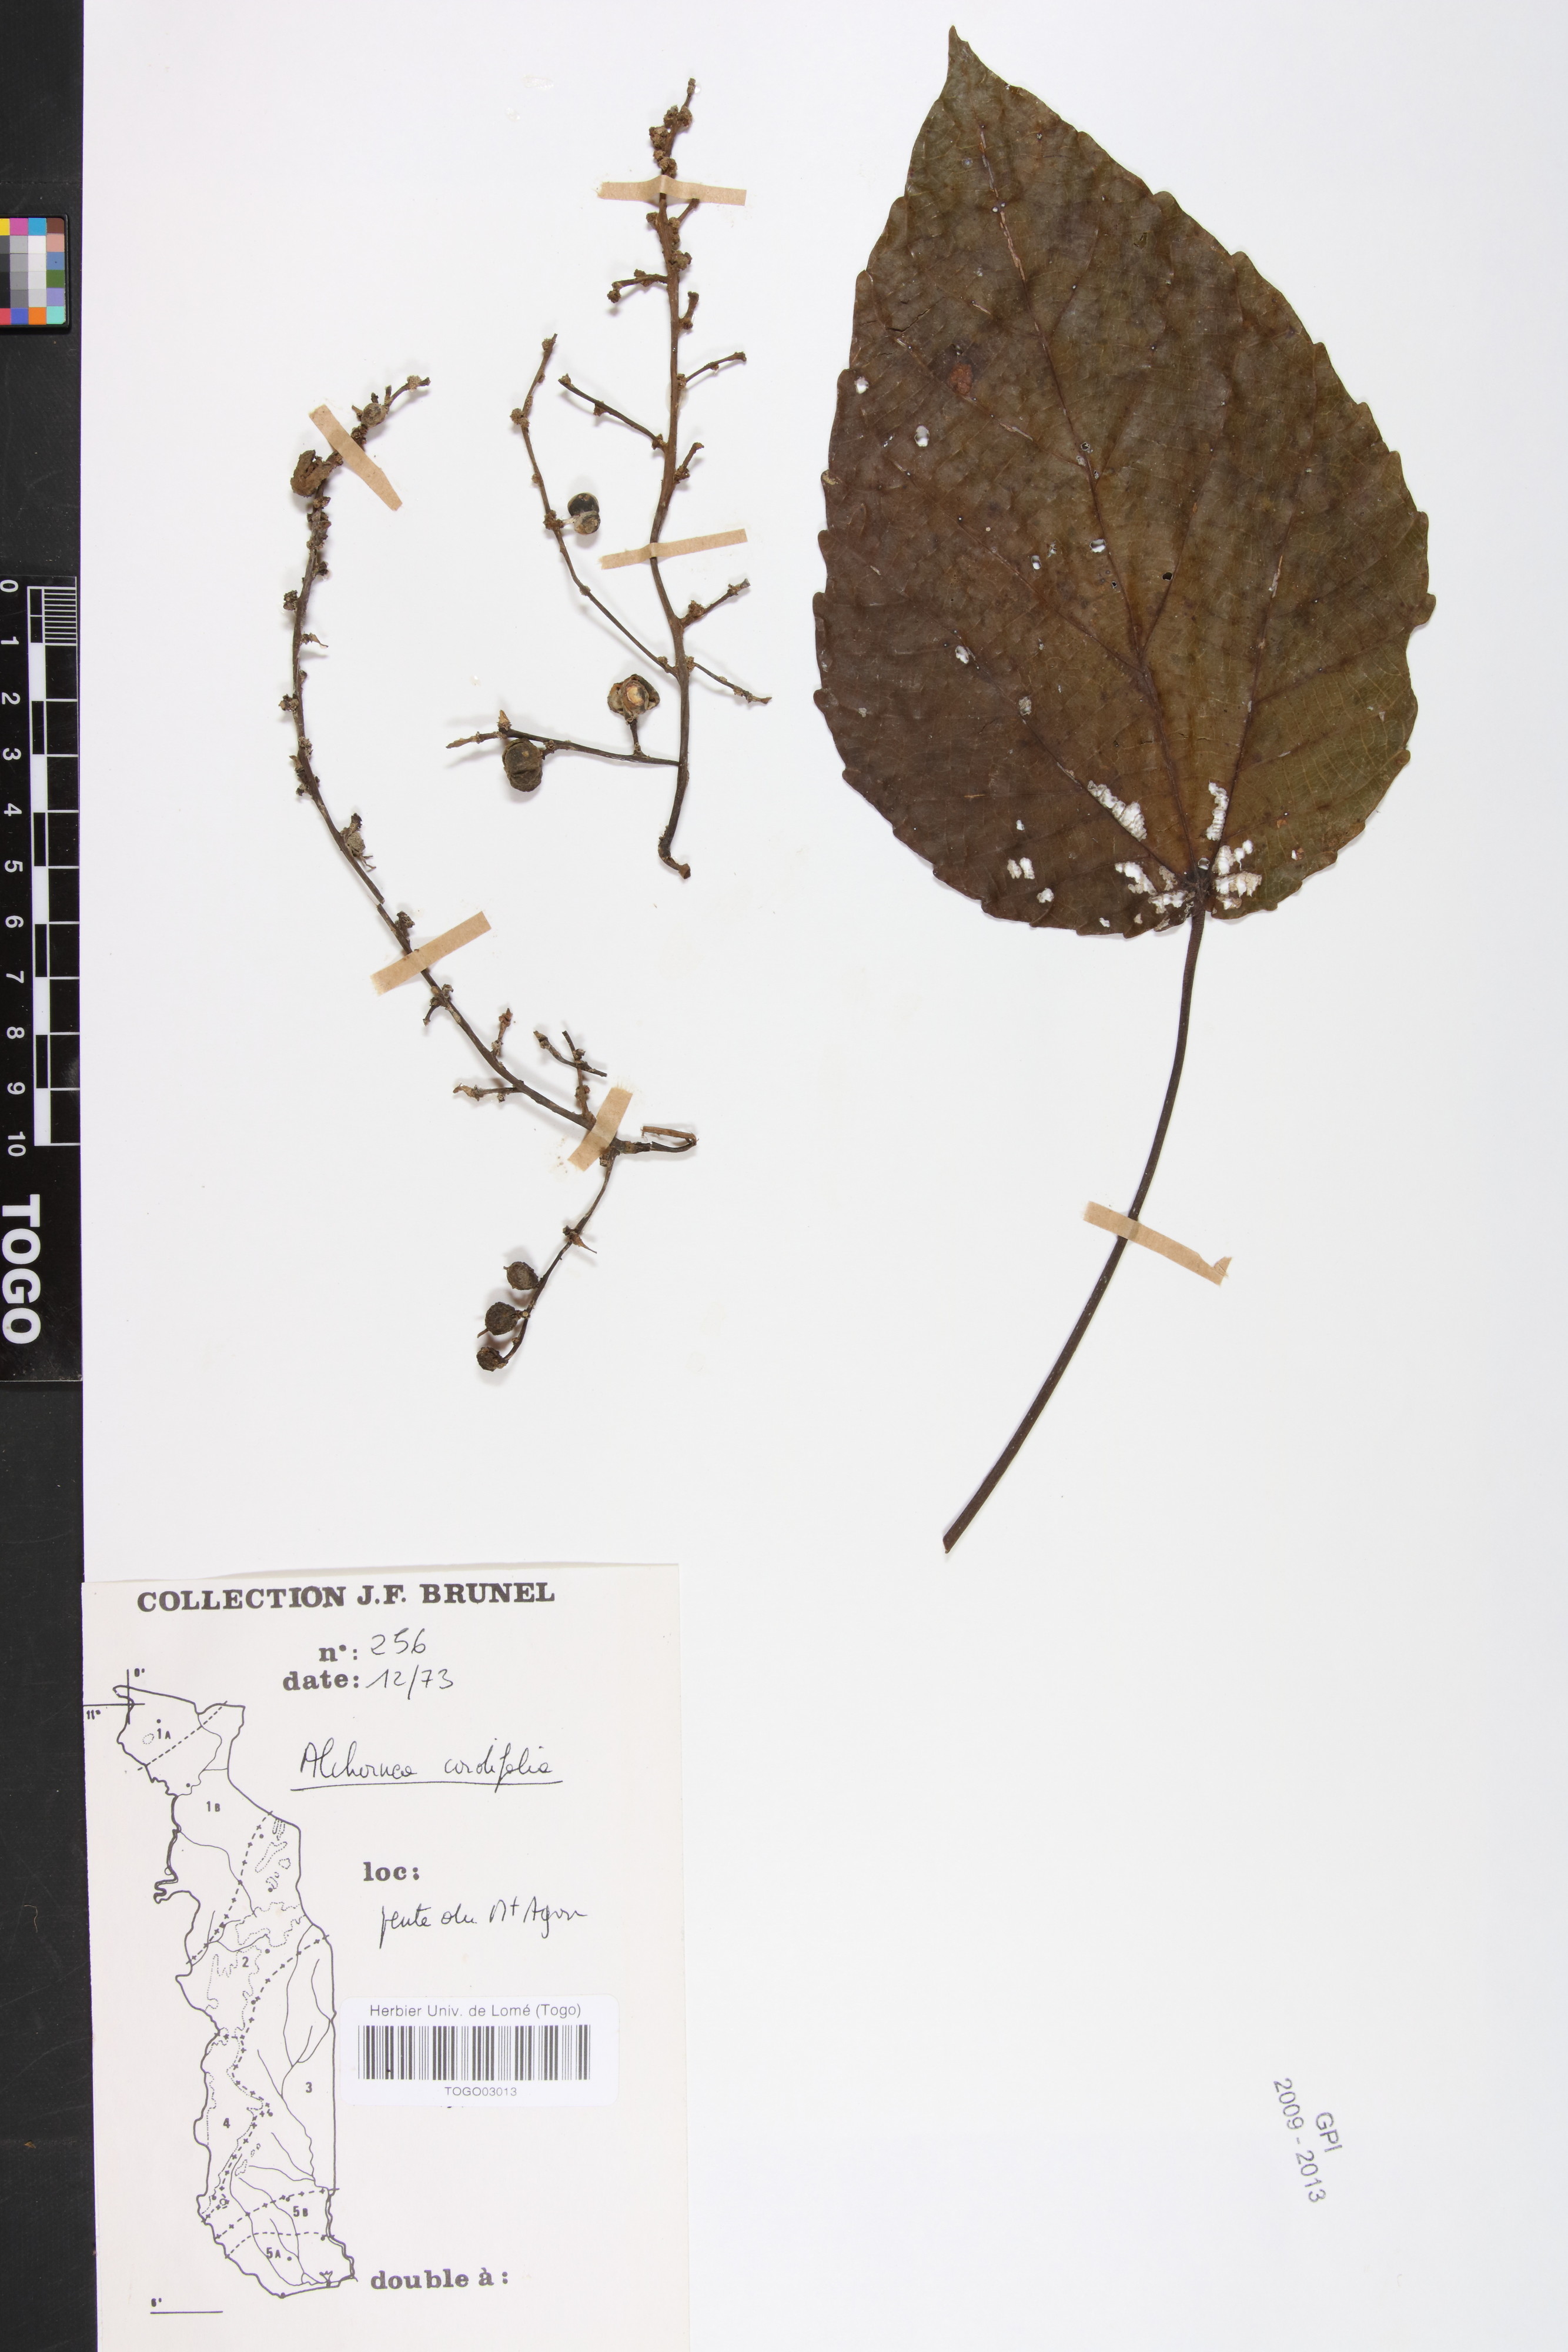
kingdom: Plantae
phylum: Tracheophyta
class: Magnoliopsida
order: Malpighiales
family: Euphorbiaceae
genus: Alchornea
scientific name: Alchornea cordifolia
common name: Christmasbush
